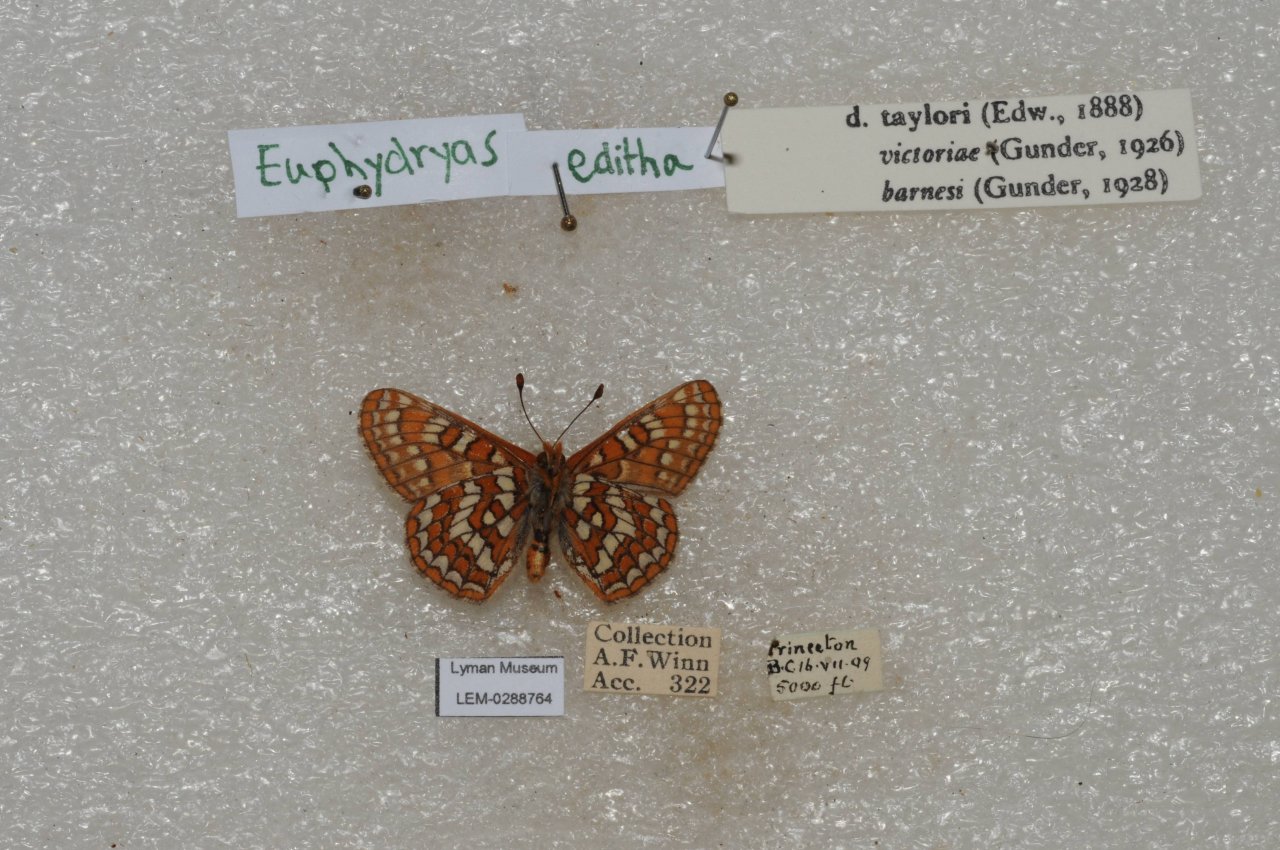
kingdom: Animalia
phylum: Arthropoda
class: Insecta
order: Lepidoptera
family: Nymphalidae
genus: Occidryas
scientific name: Occidryas editha
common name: Edith's Checkerspot
